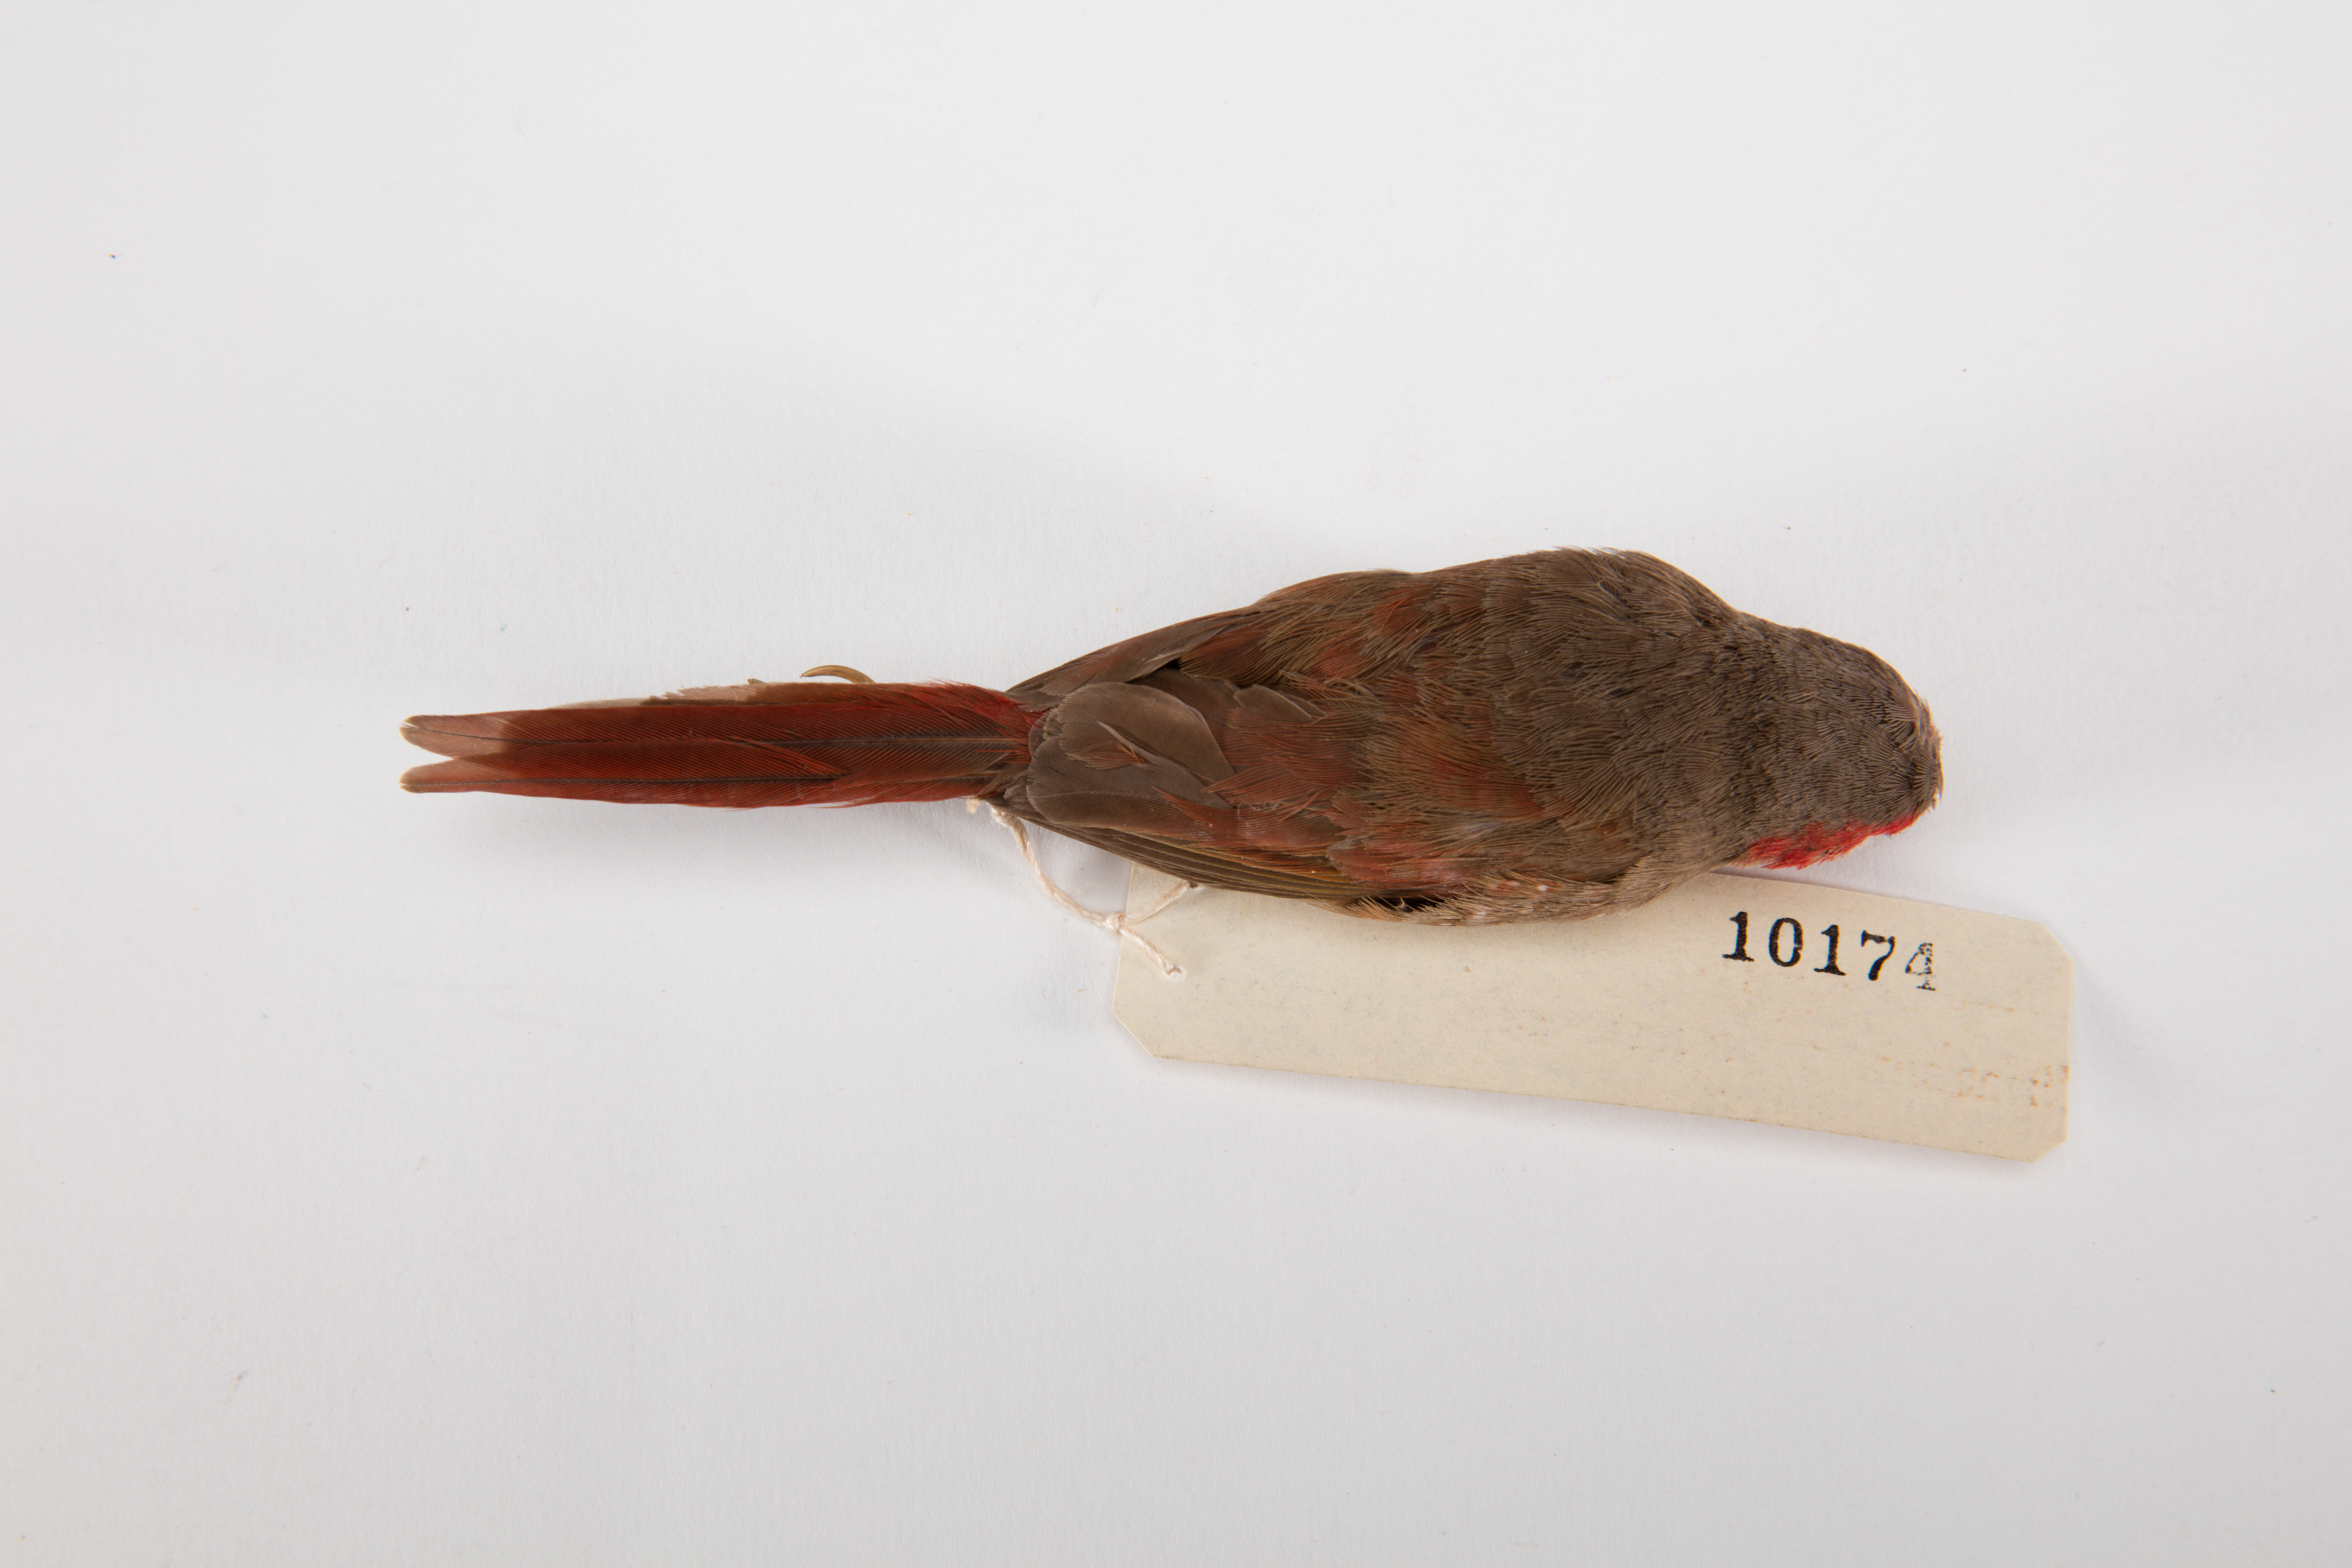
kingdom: Animalia
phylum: Chordata
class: Aves
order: Passeriformes
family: Estrildidae
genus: Neochmia
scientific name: Neochmia phaeton
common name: Crimson finch
